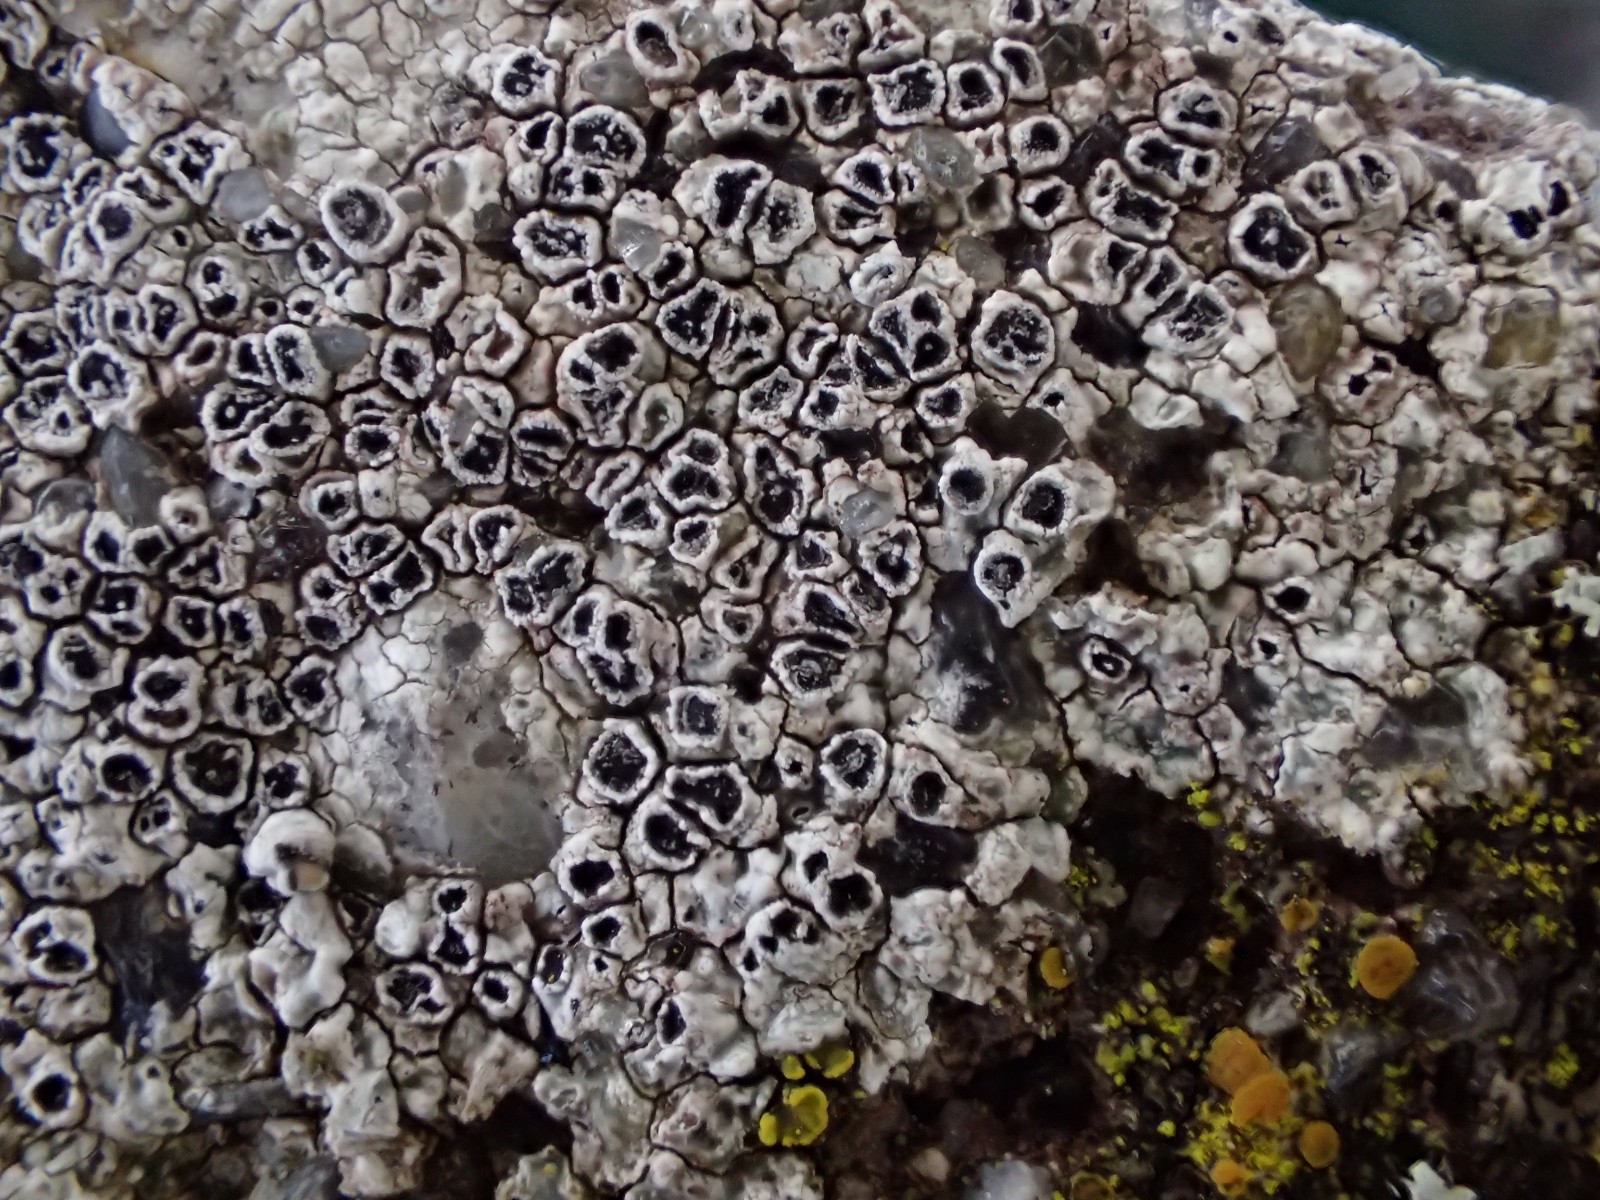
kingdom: Fungi
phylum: Ascomycota
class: Lecanoromycetes
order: Pertusariales
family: Megasporaceae
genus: Circinaria
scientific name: Circinaria contorta
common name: indviklet hulskivelav
